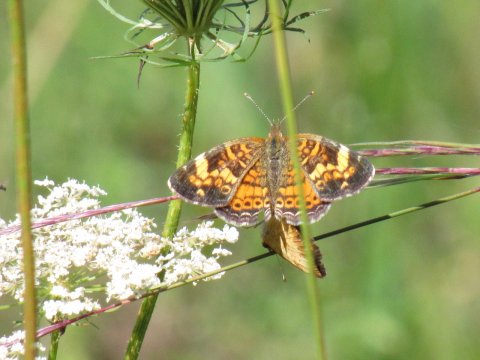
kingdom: Animalia
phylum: Arthropoda
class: Insecta
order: Lepidoptera
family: Nymphalidae
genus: Phyciodes
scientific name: Phyciodes
